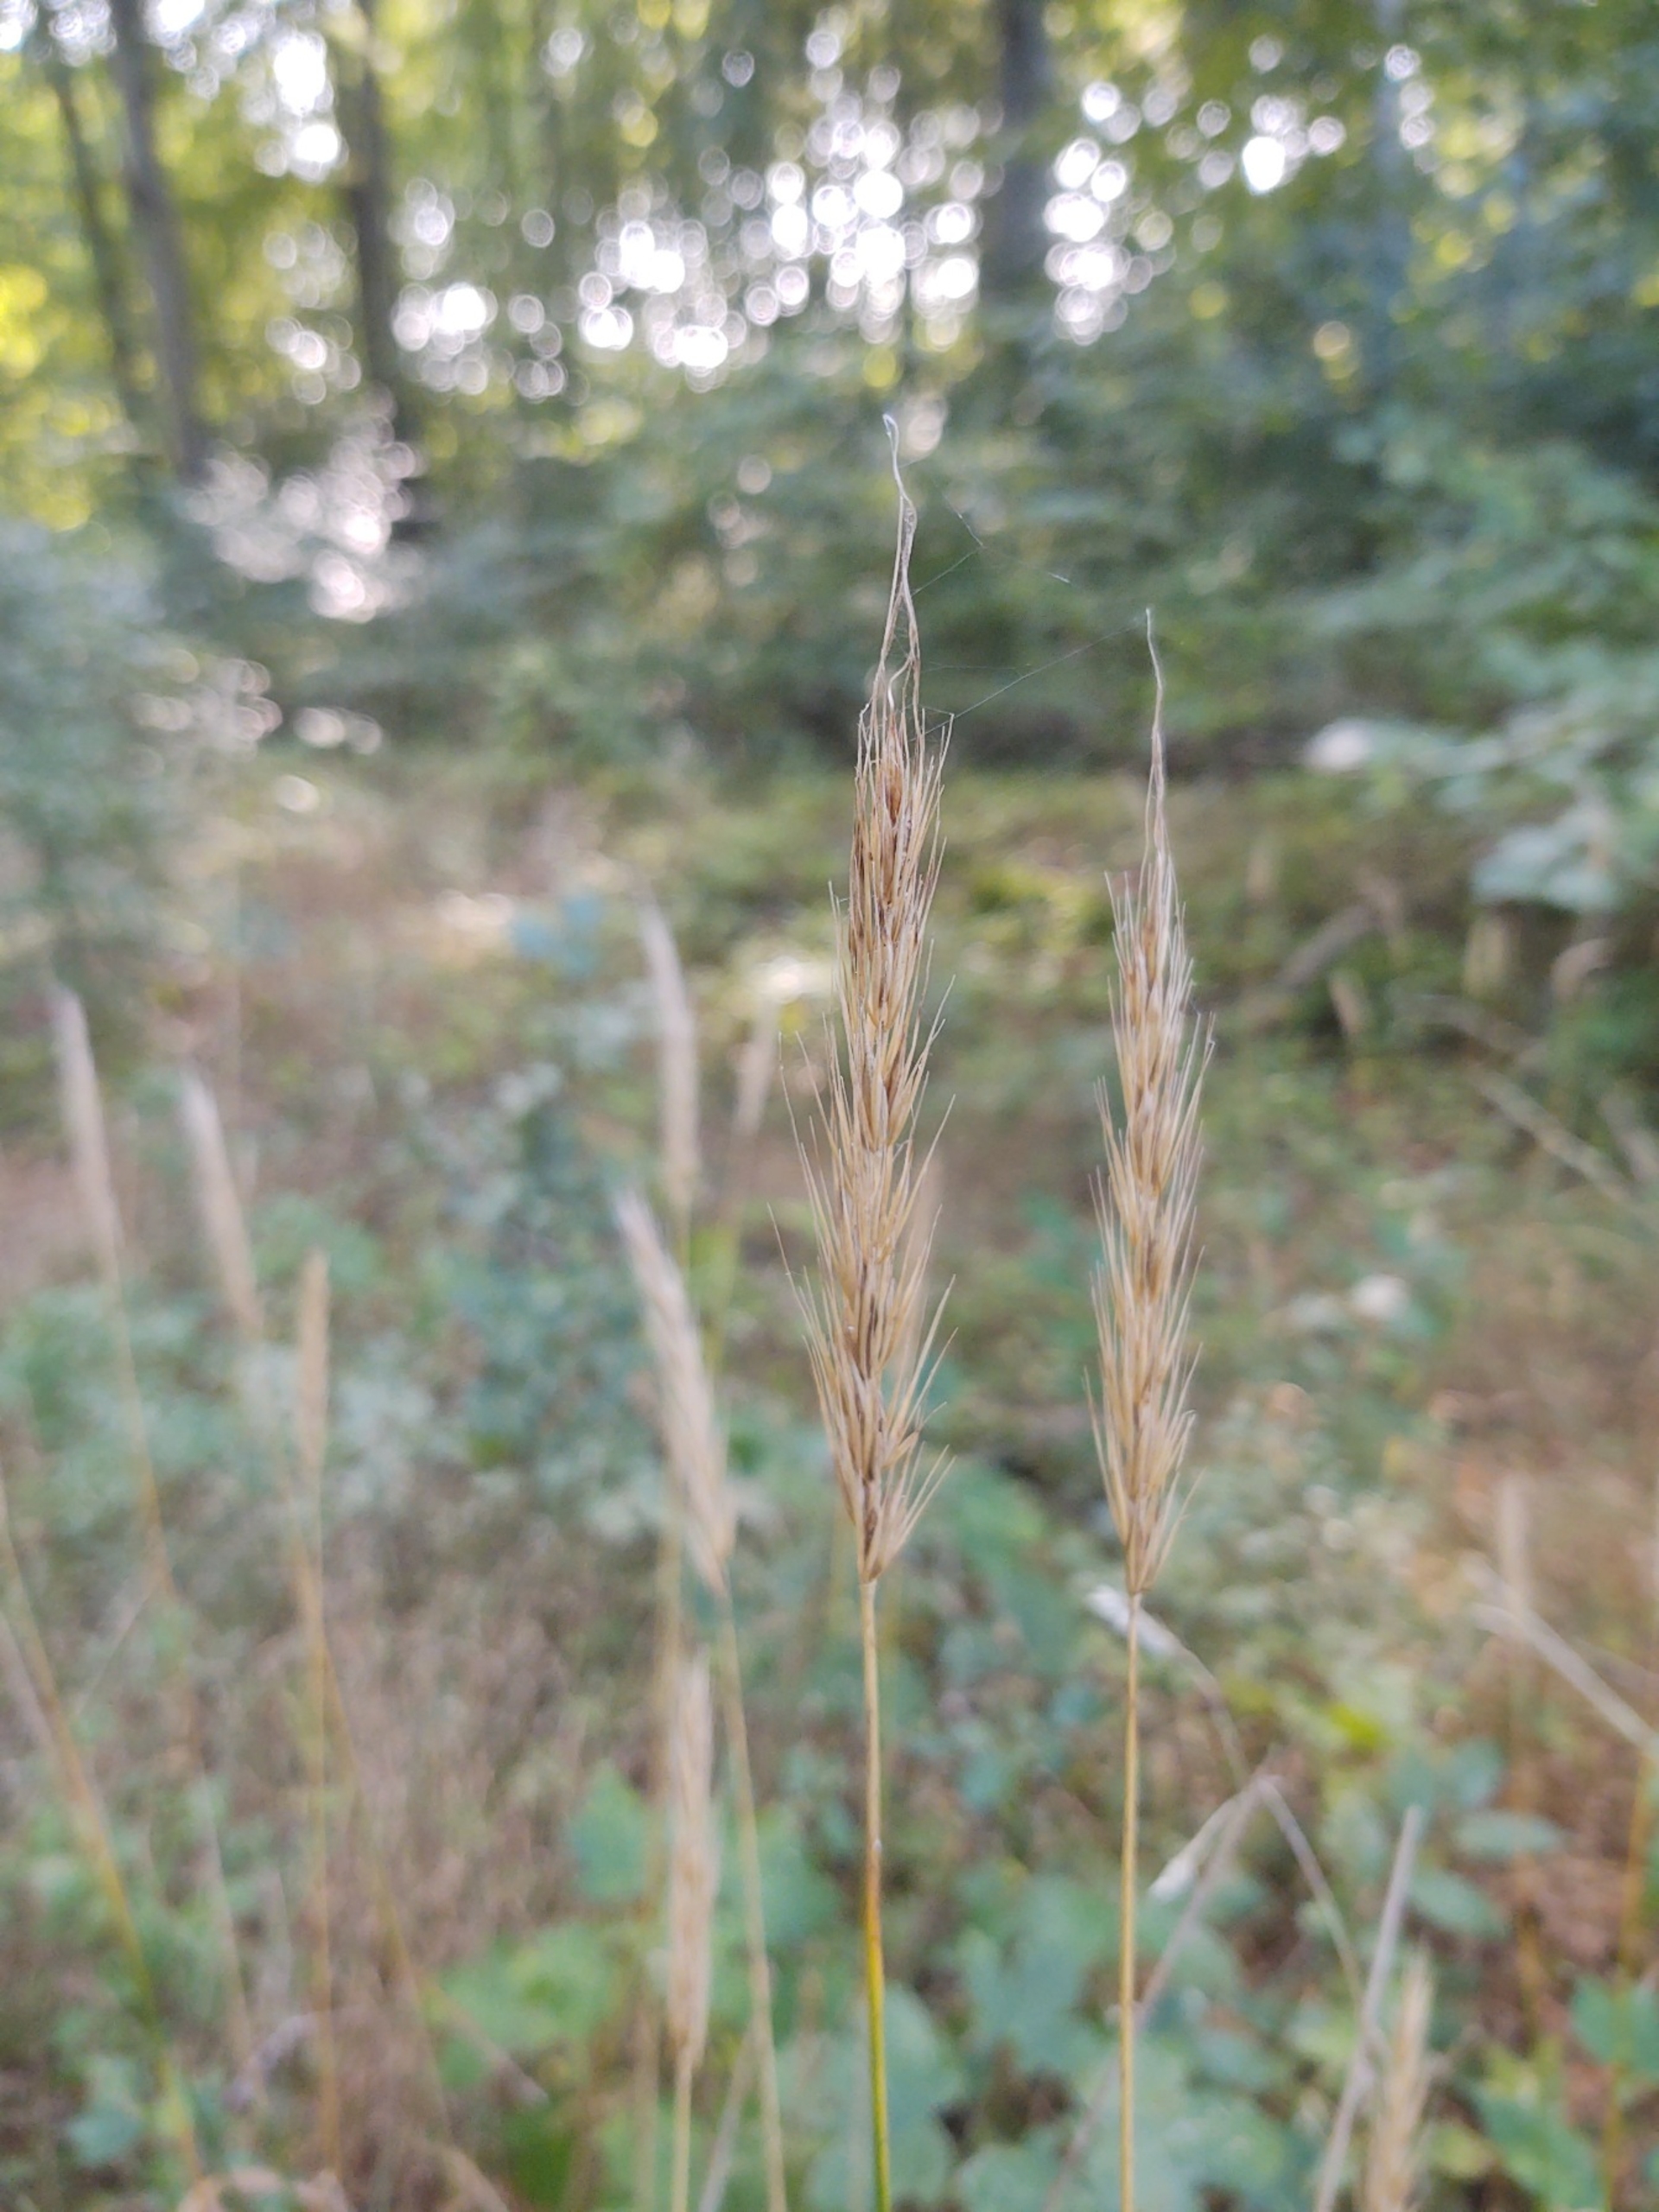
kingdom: Plantae
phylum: Tracheophyta
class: Liliopsida
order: Poales
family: Poaceae
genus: Hordelymus
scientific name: Hordelymus europaeus
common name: Skovbyg
